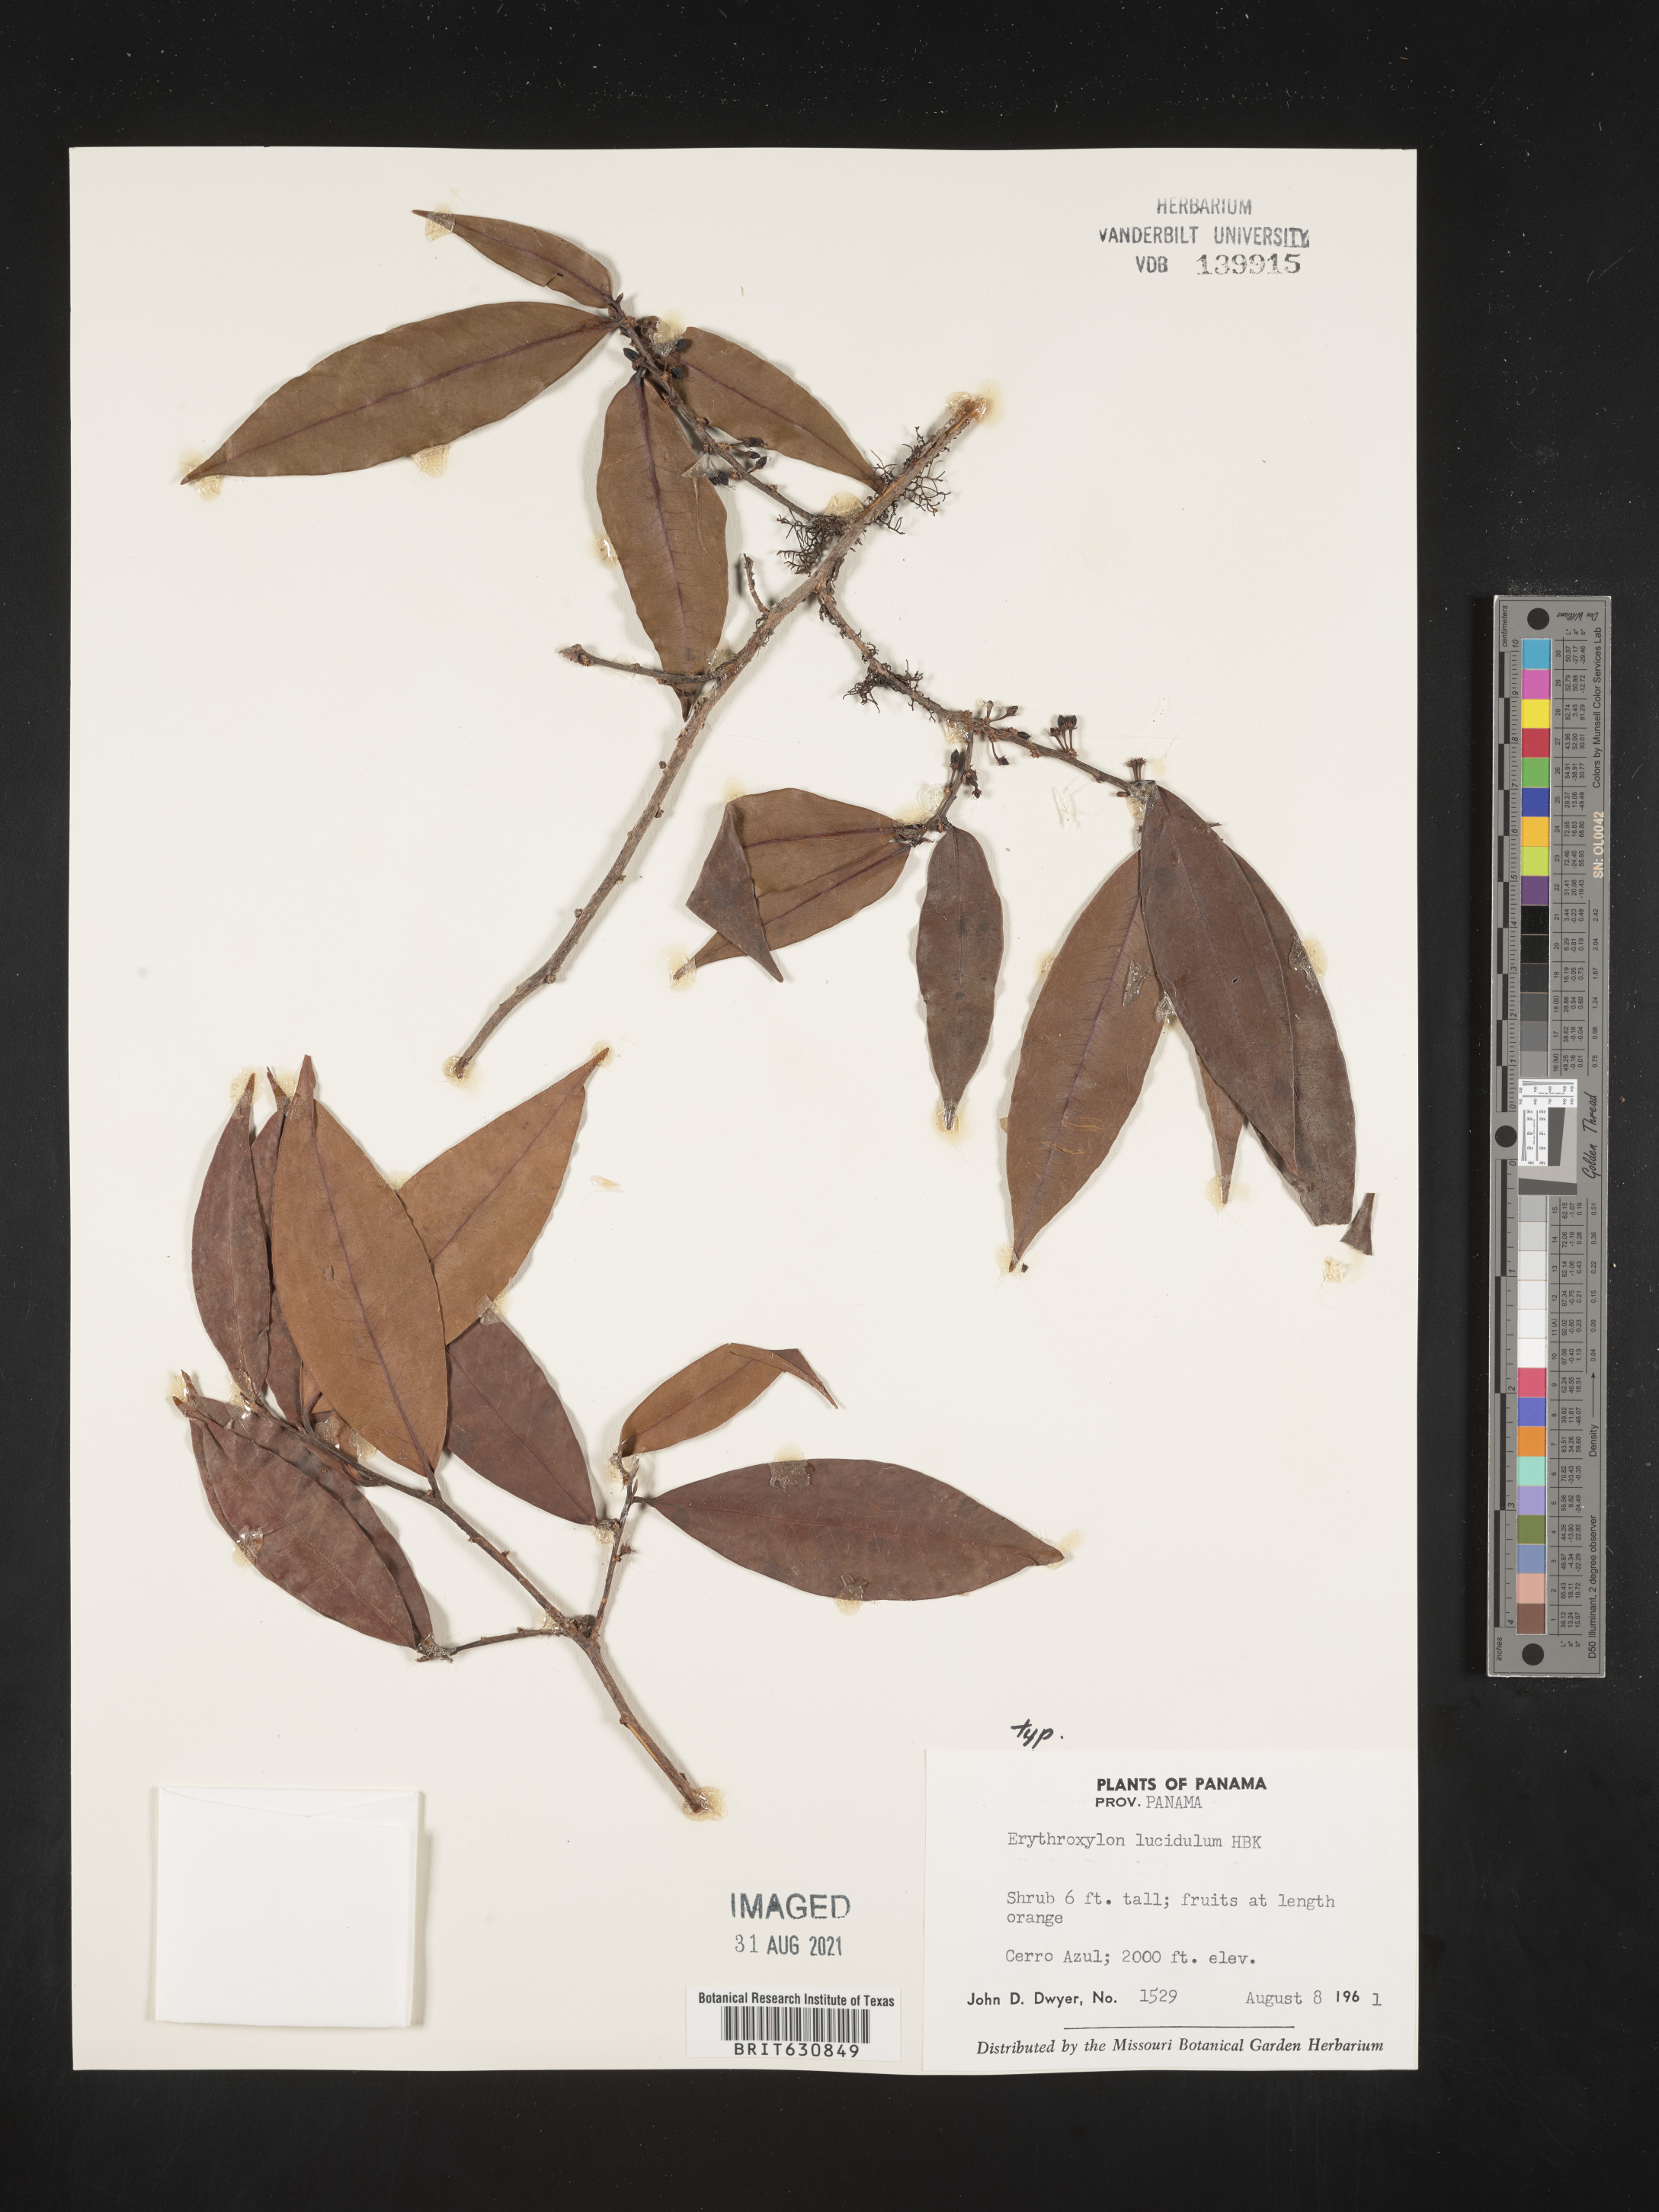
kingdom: Plantae
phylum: Tracheophyta
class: Magnoliopsida
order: Malpighiales
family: Erythroxylaceae
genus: Erythroxylum
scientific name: Erythroxylum
